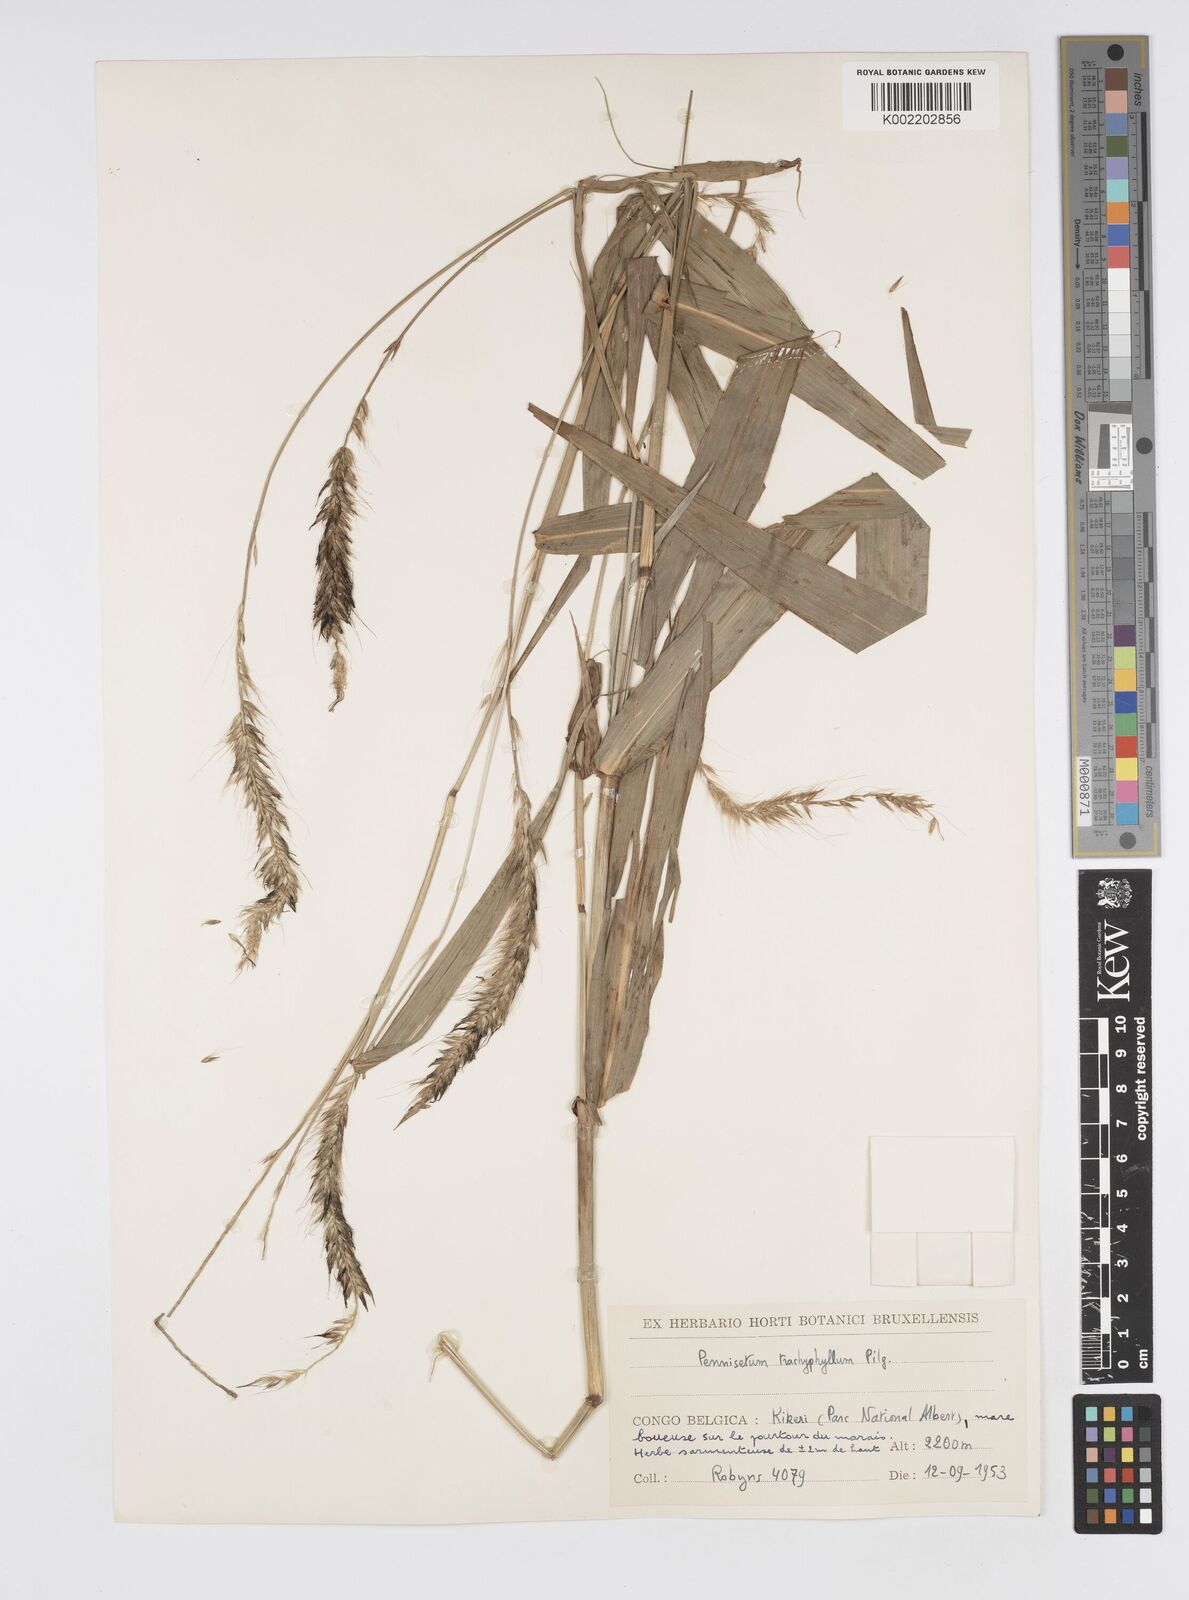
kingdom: Plantae
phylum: Tracheophyta
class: Liliopsida
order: Poales
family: Poaceae
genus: Cenchrus
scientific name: Cenchrus trachyphyllus
